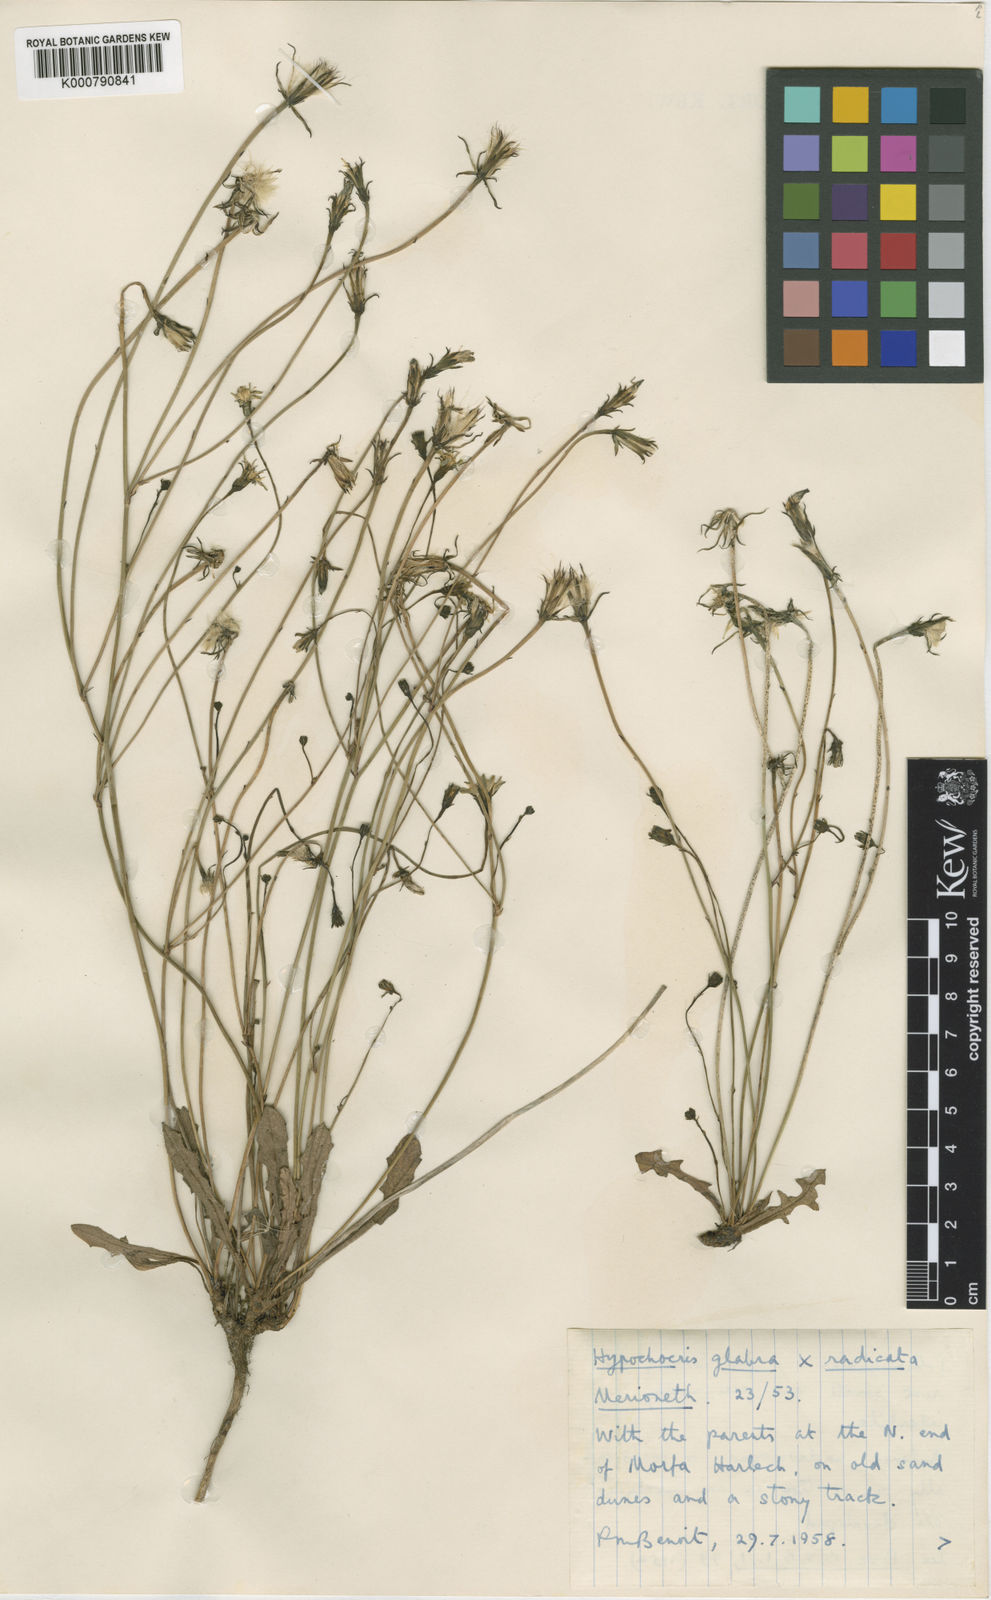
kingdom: Plantae
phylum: Tracheophyta
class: Magnoliopsida
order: Asterales
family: Asteraceae
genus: Hypochaeris
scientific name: Hypochaeris glabra
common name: Smooth catsear
